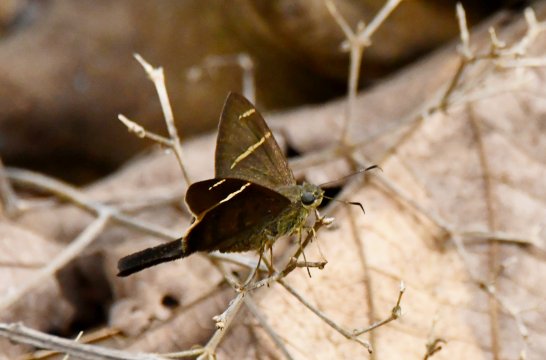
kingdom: Animalia
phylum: Arthropoda
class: Insecta
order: Lepidoptera
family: Hesperiidae
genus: Urbanus
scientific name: Urbanus tanna
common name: Tanna Longtail
